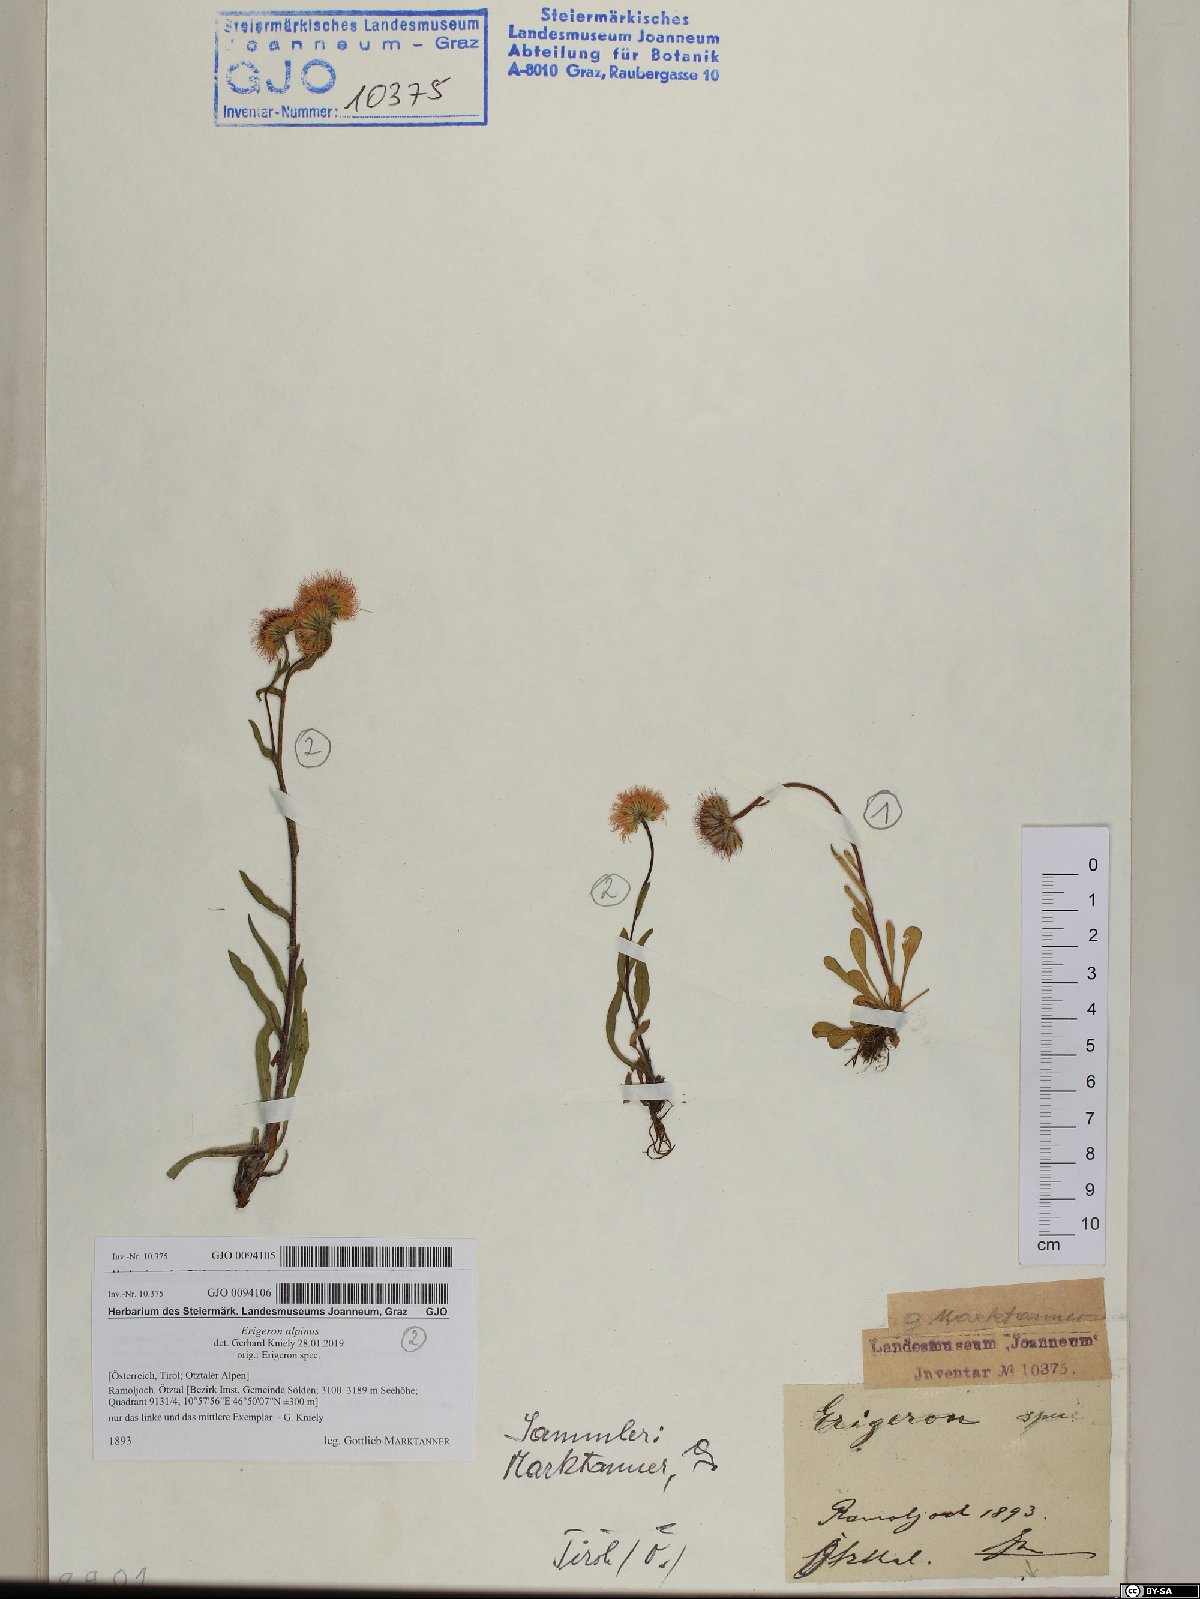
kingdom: Plantae
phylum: Tracheophyta
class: Magnoliopsida
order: Asterales
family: Asteraceae
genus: Erigeron
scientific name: Erigeron uniflorus
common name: Northern daisy
